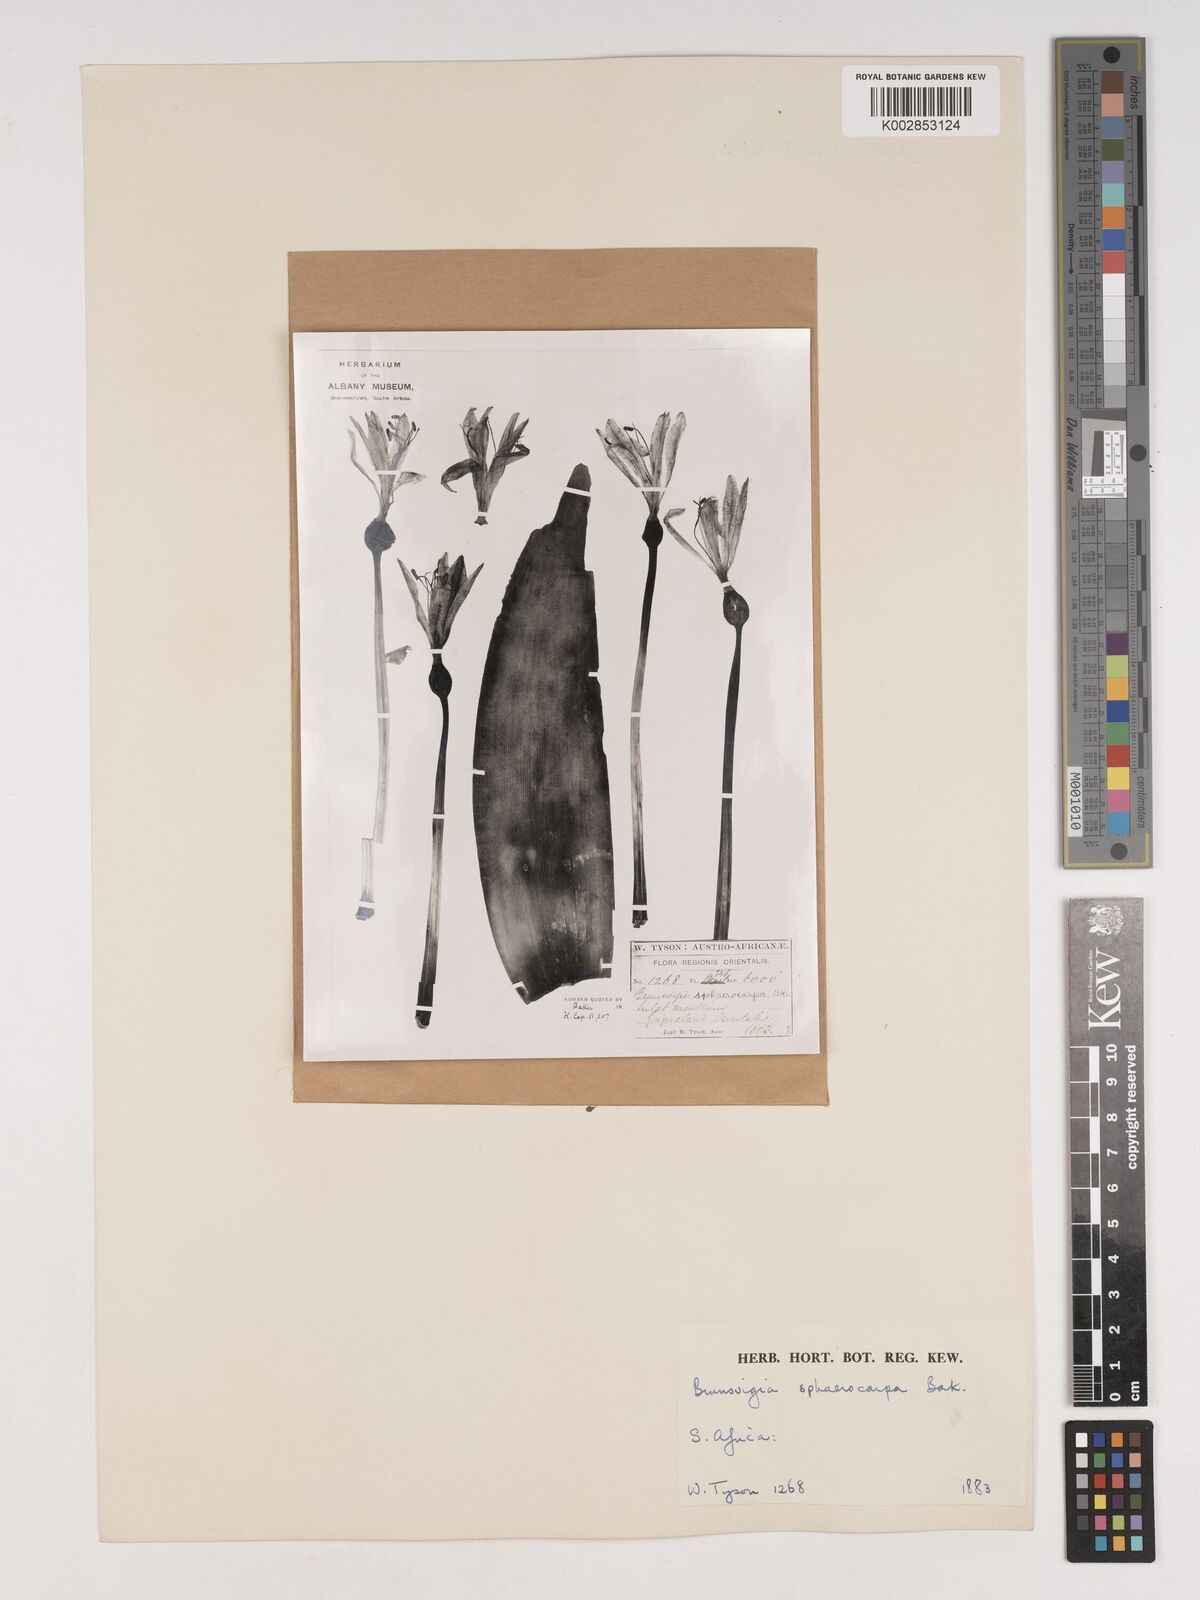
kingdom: Plantae
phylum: Tracheophyta
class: Liliopsida
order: Asparagales
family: Amaryllidaceae
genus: Brunsvigia
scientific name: Brunsvigia grandiflora
